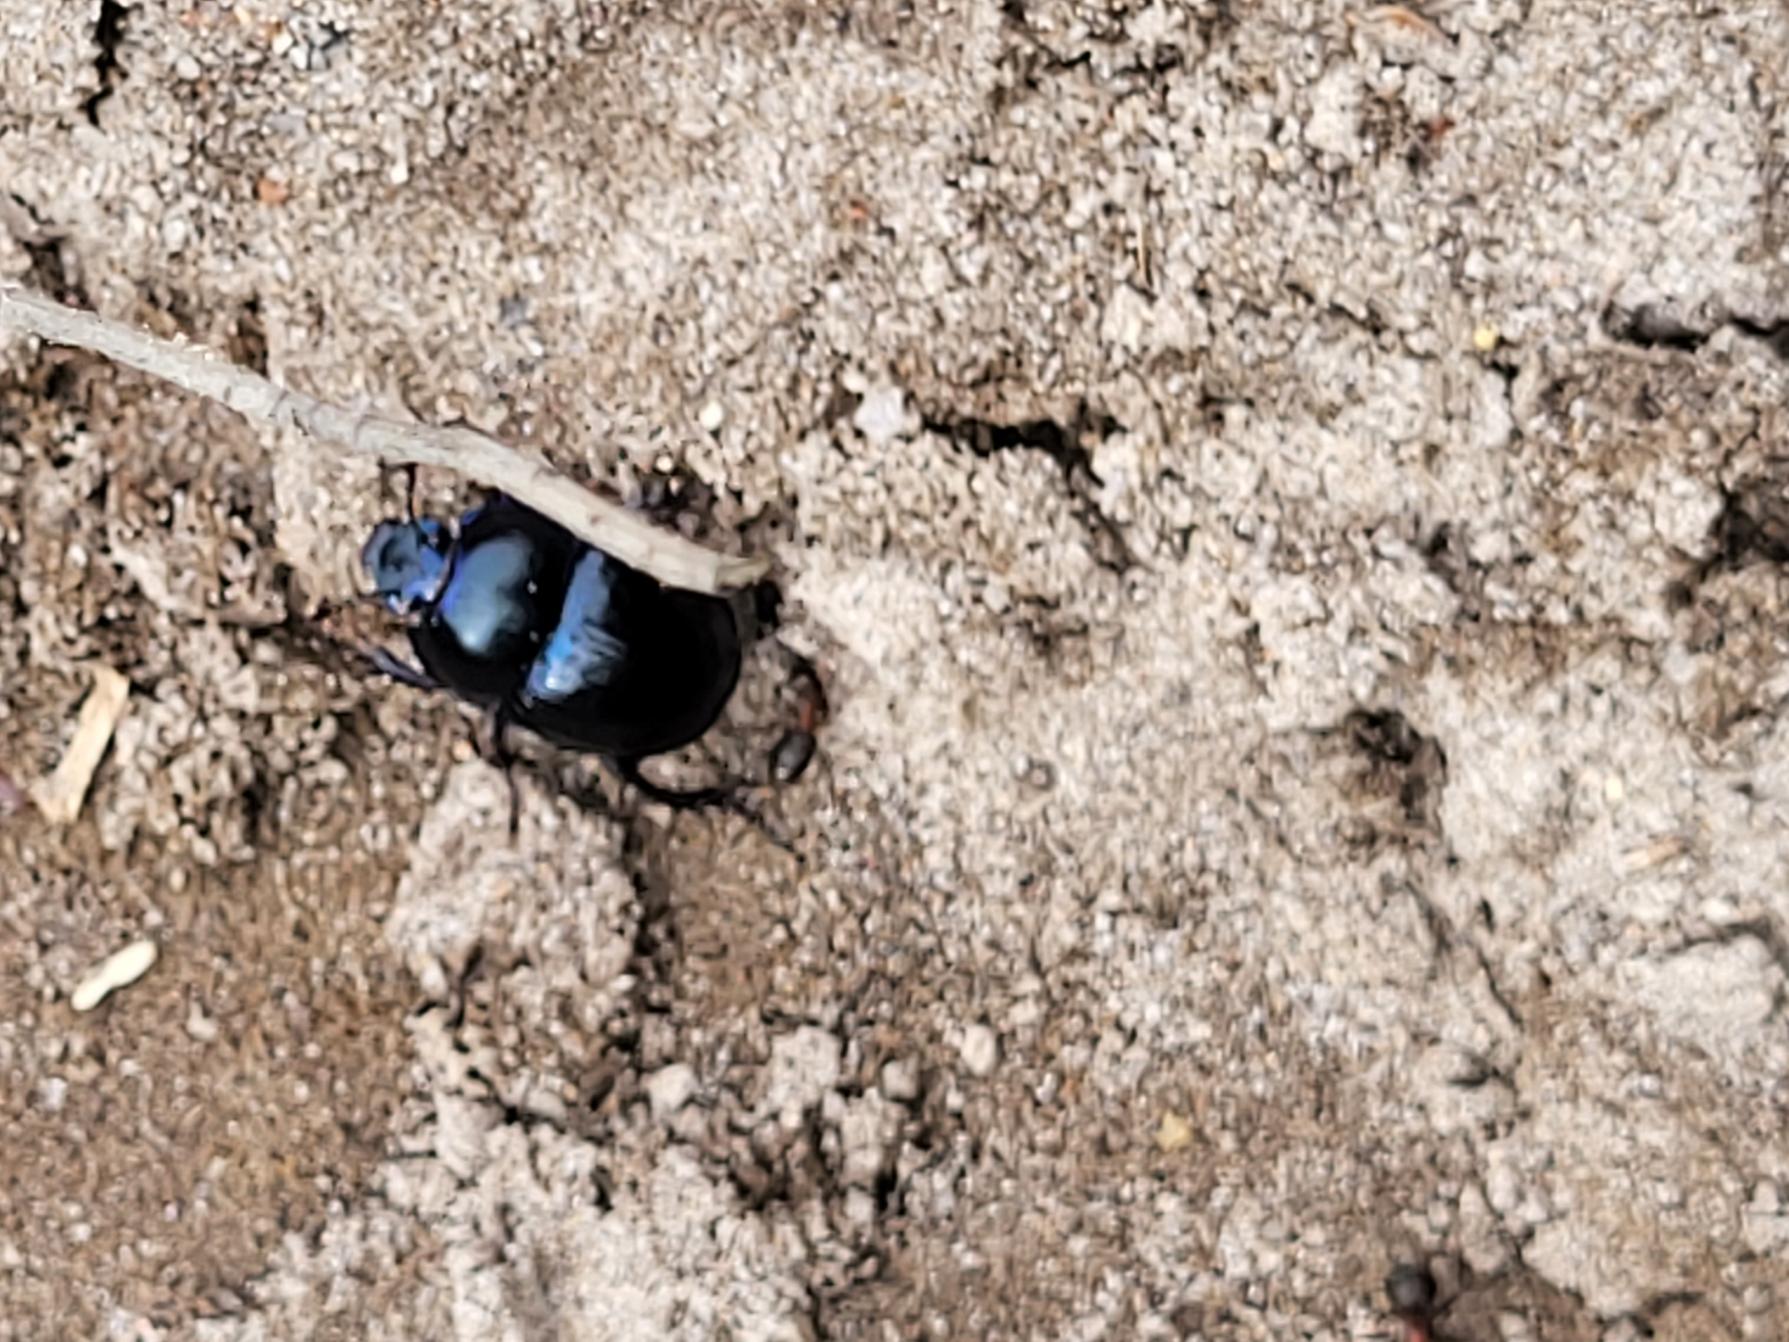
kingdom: Animalia
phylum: Arthropoda
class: Insecta
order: Coleoptera
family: Geotrupidae
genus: Anoplotrupes
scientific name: Anoplotrupes stercorosus
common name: Skovskarnbasse
